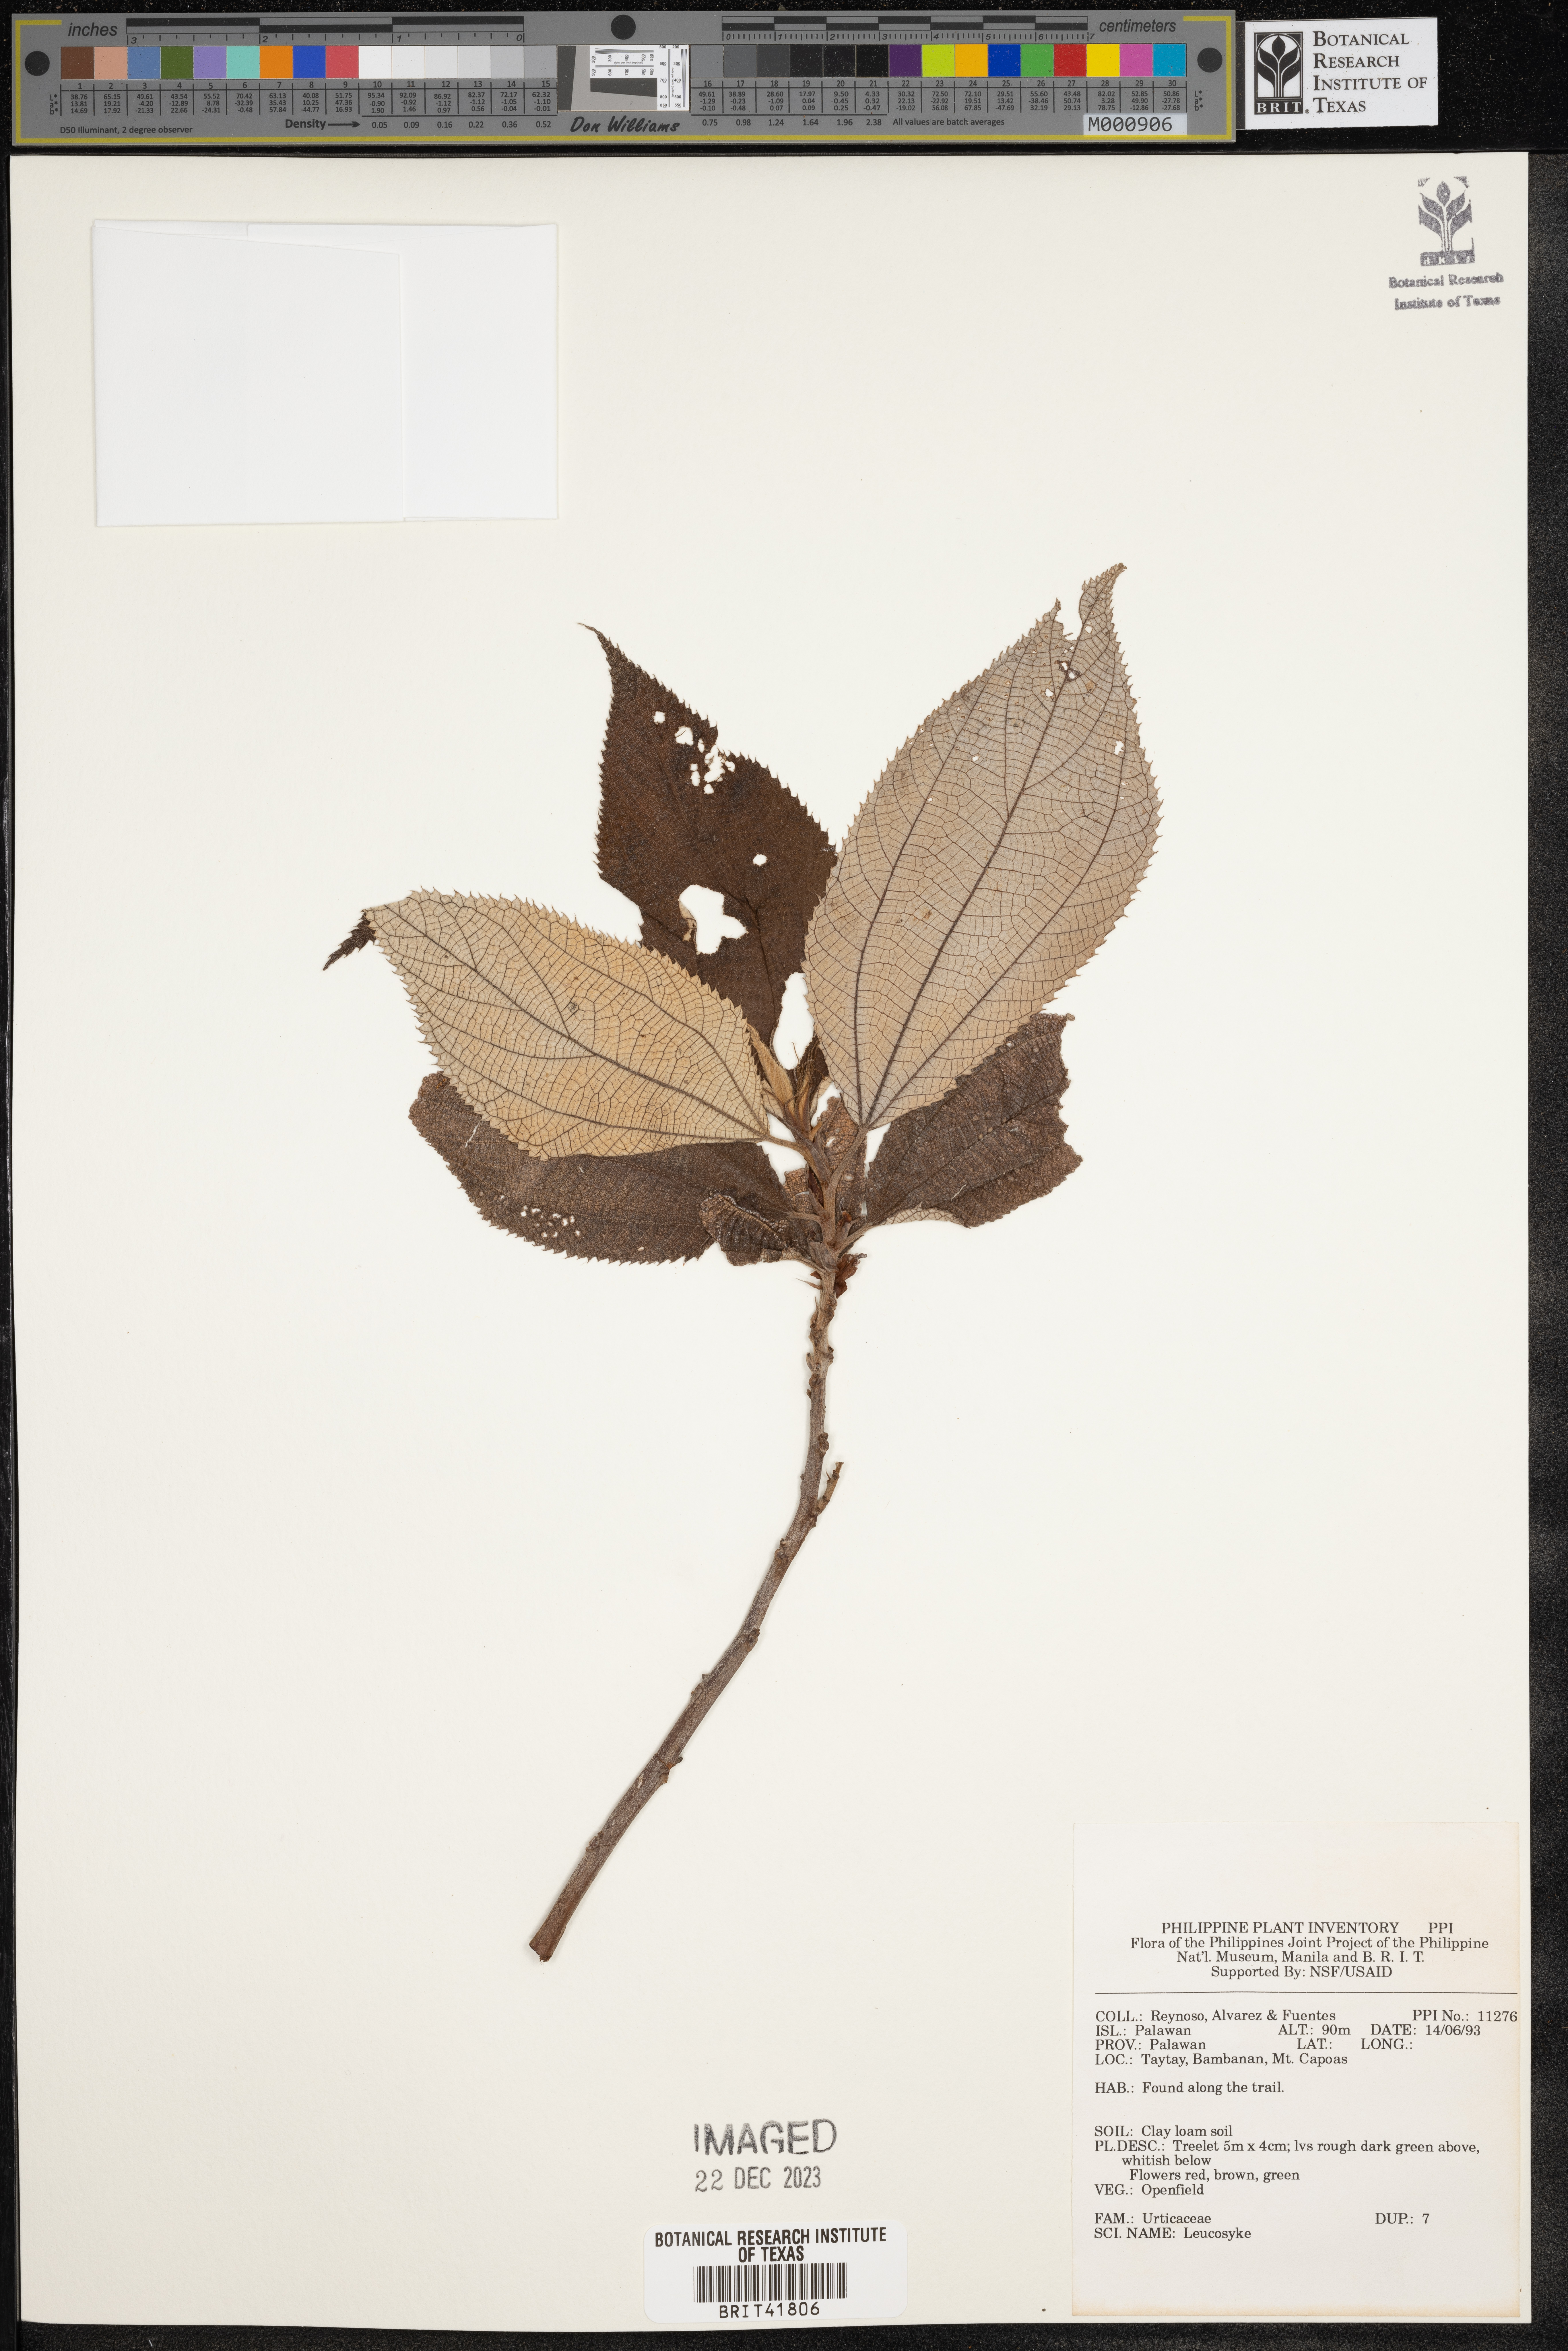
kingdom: Plantae
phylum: Tracheophyta
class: Magnoliopsida
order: Rosales
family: Urticaceae
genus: Leucosyke
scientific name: Leucosyke
